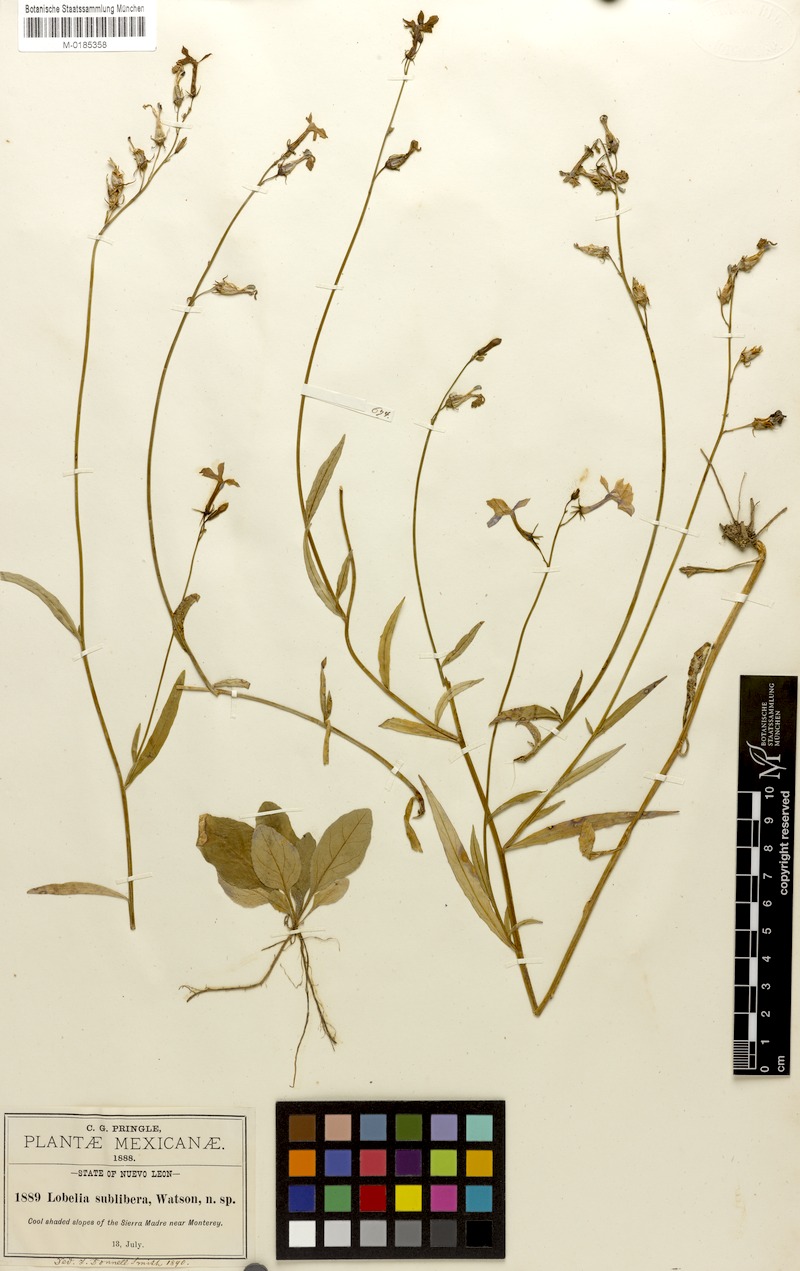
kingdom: Plantae
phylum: Tracheophyta
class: Magnoliopsida
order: Asterales
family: Campanulaceae
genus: Lobelia
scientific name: Lobelia sublibera
